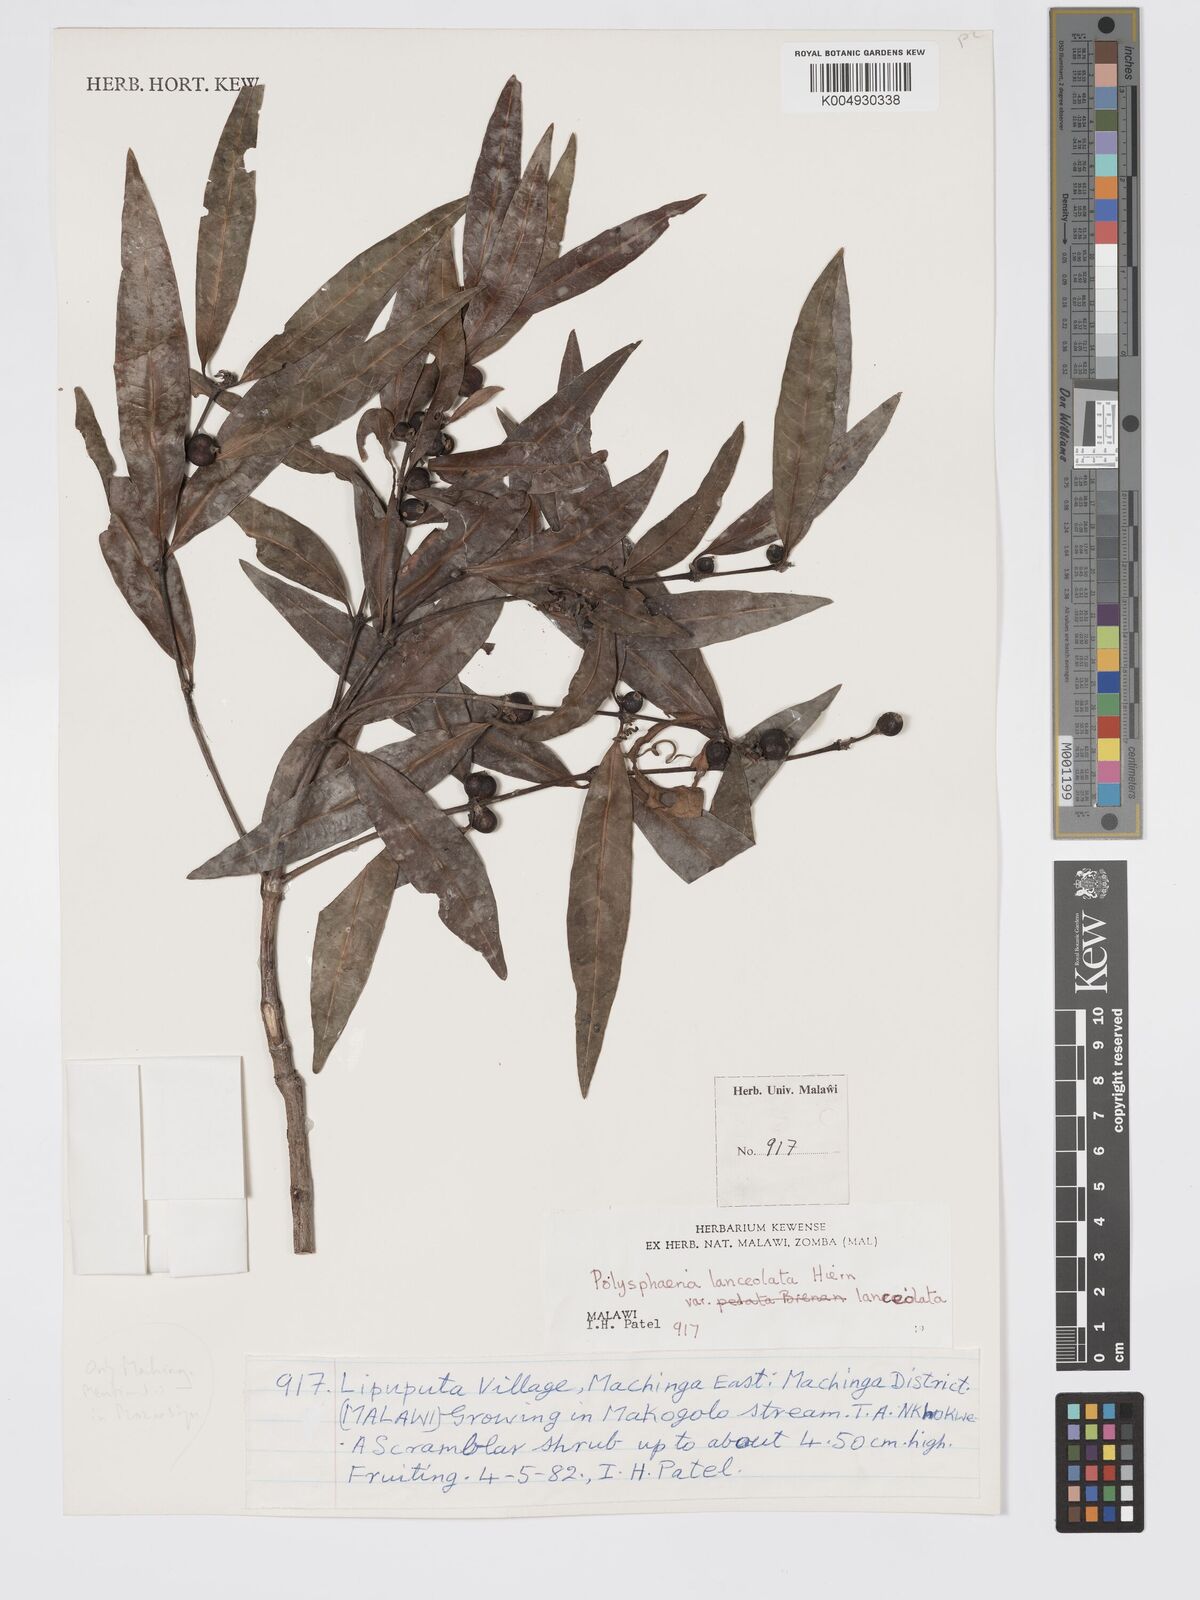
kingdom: Plantae
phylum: Tracheophyta
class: Magnoliopsida
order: Gentianales
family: Rubiaceae
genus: Polysphaeria
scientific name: Polysphaeria dischistocalyx
